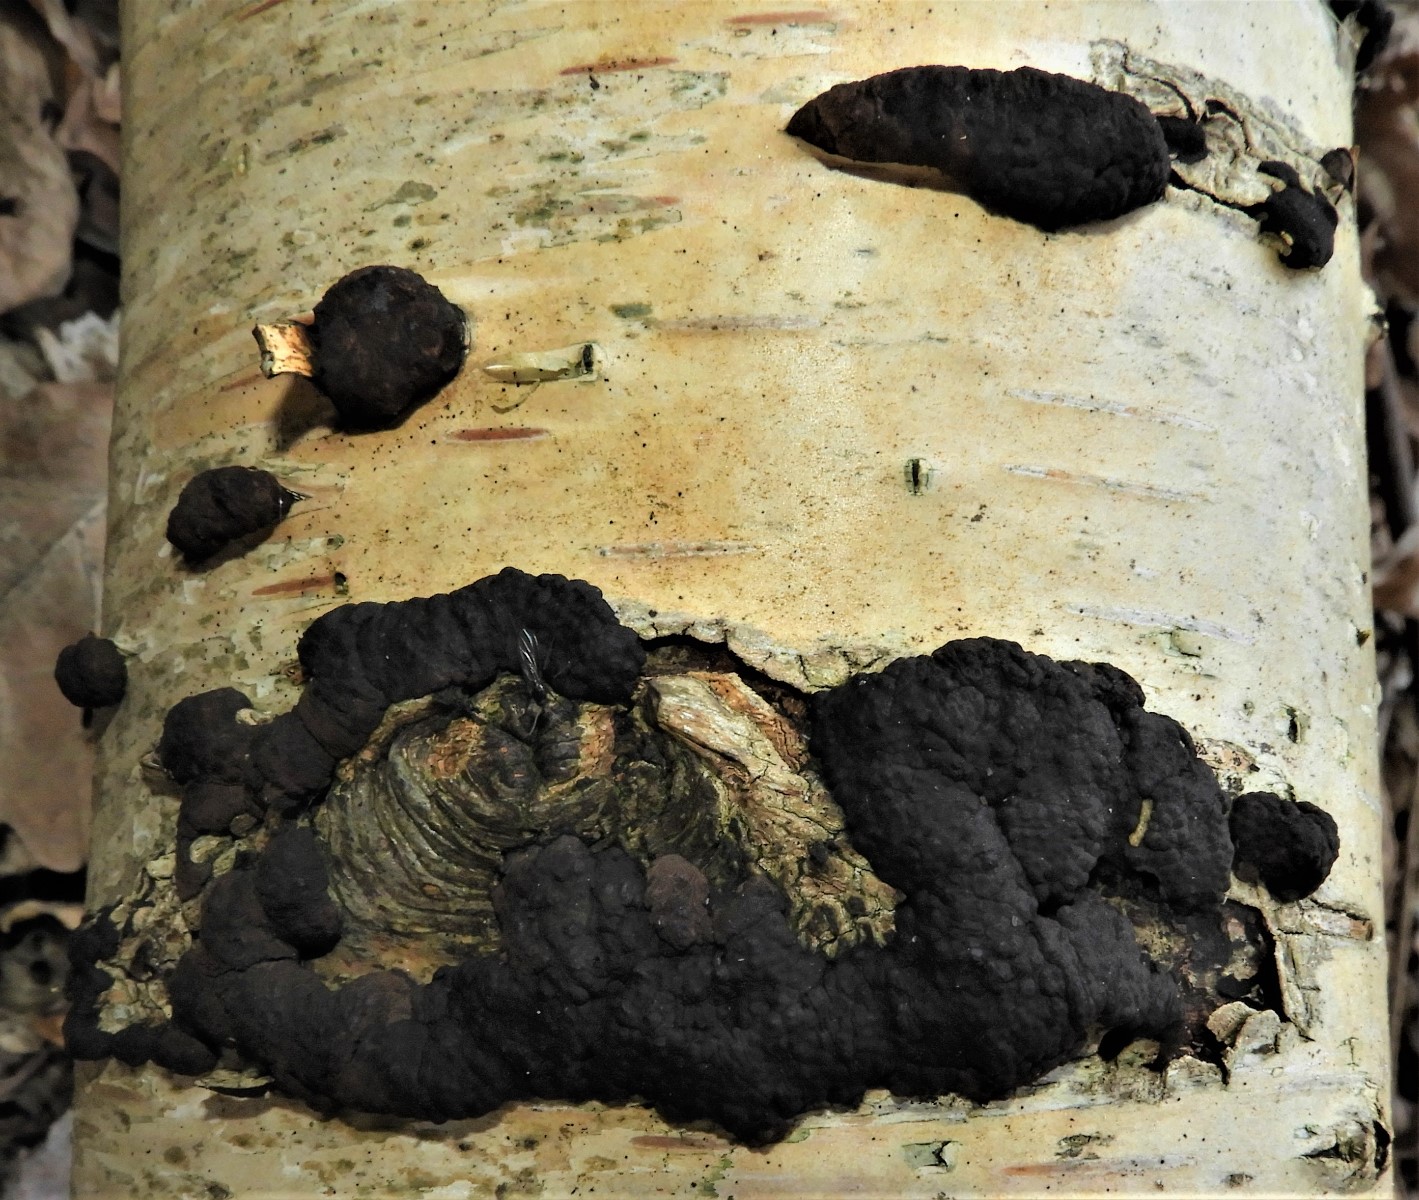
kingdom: Fungi
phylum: Ascomycota
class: Sordariomycetes
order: Xylariales
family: Hypoxylaceae
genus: Jackrogersella
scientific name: Jackrogersella multiformis
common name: foranderlig kulbær
